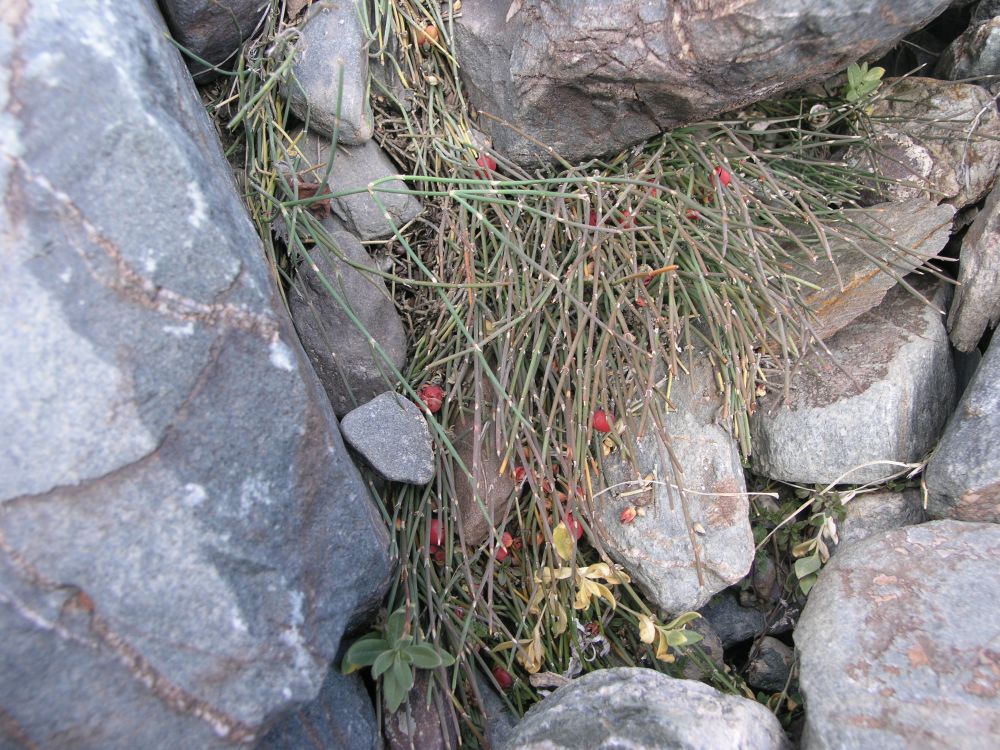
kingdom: Plantae
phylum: Tracheophyta
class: Gnetopsida
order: Ephedrales
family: Ephedraceae
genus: Ephedra
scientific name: Ephedra monosperma
